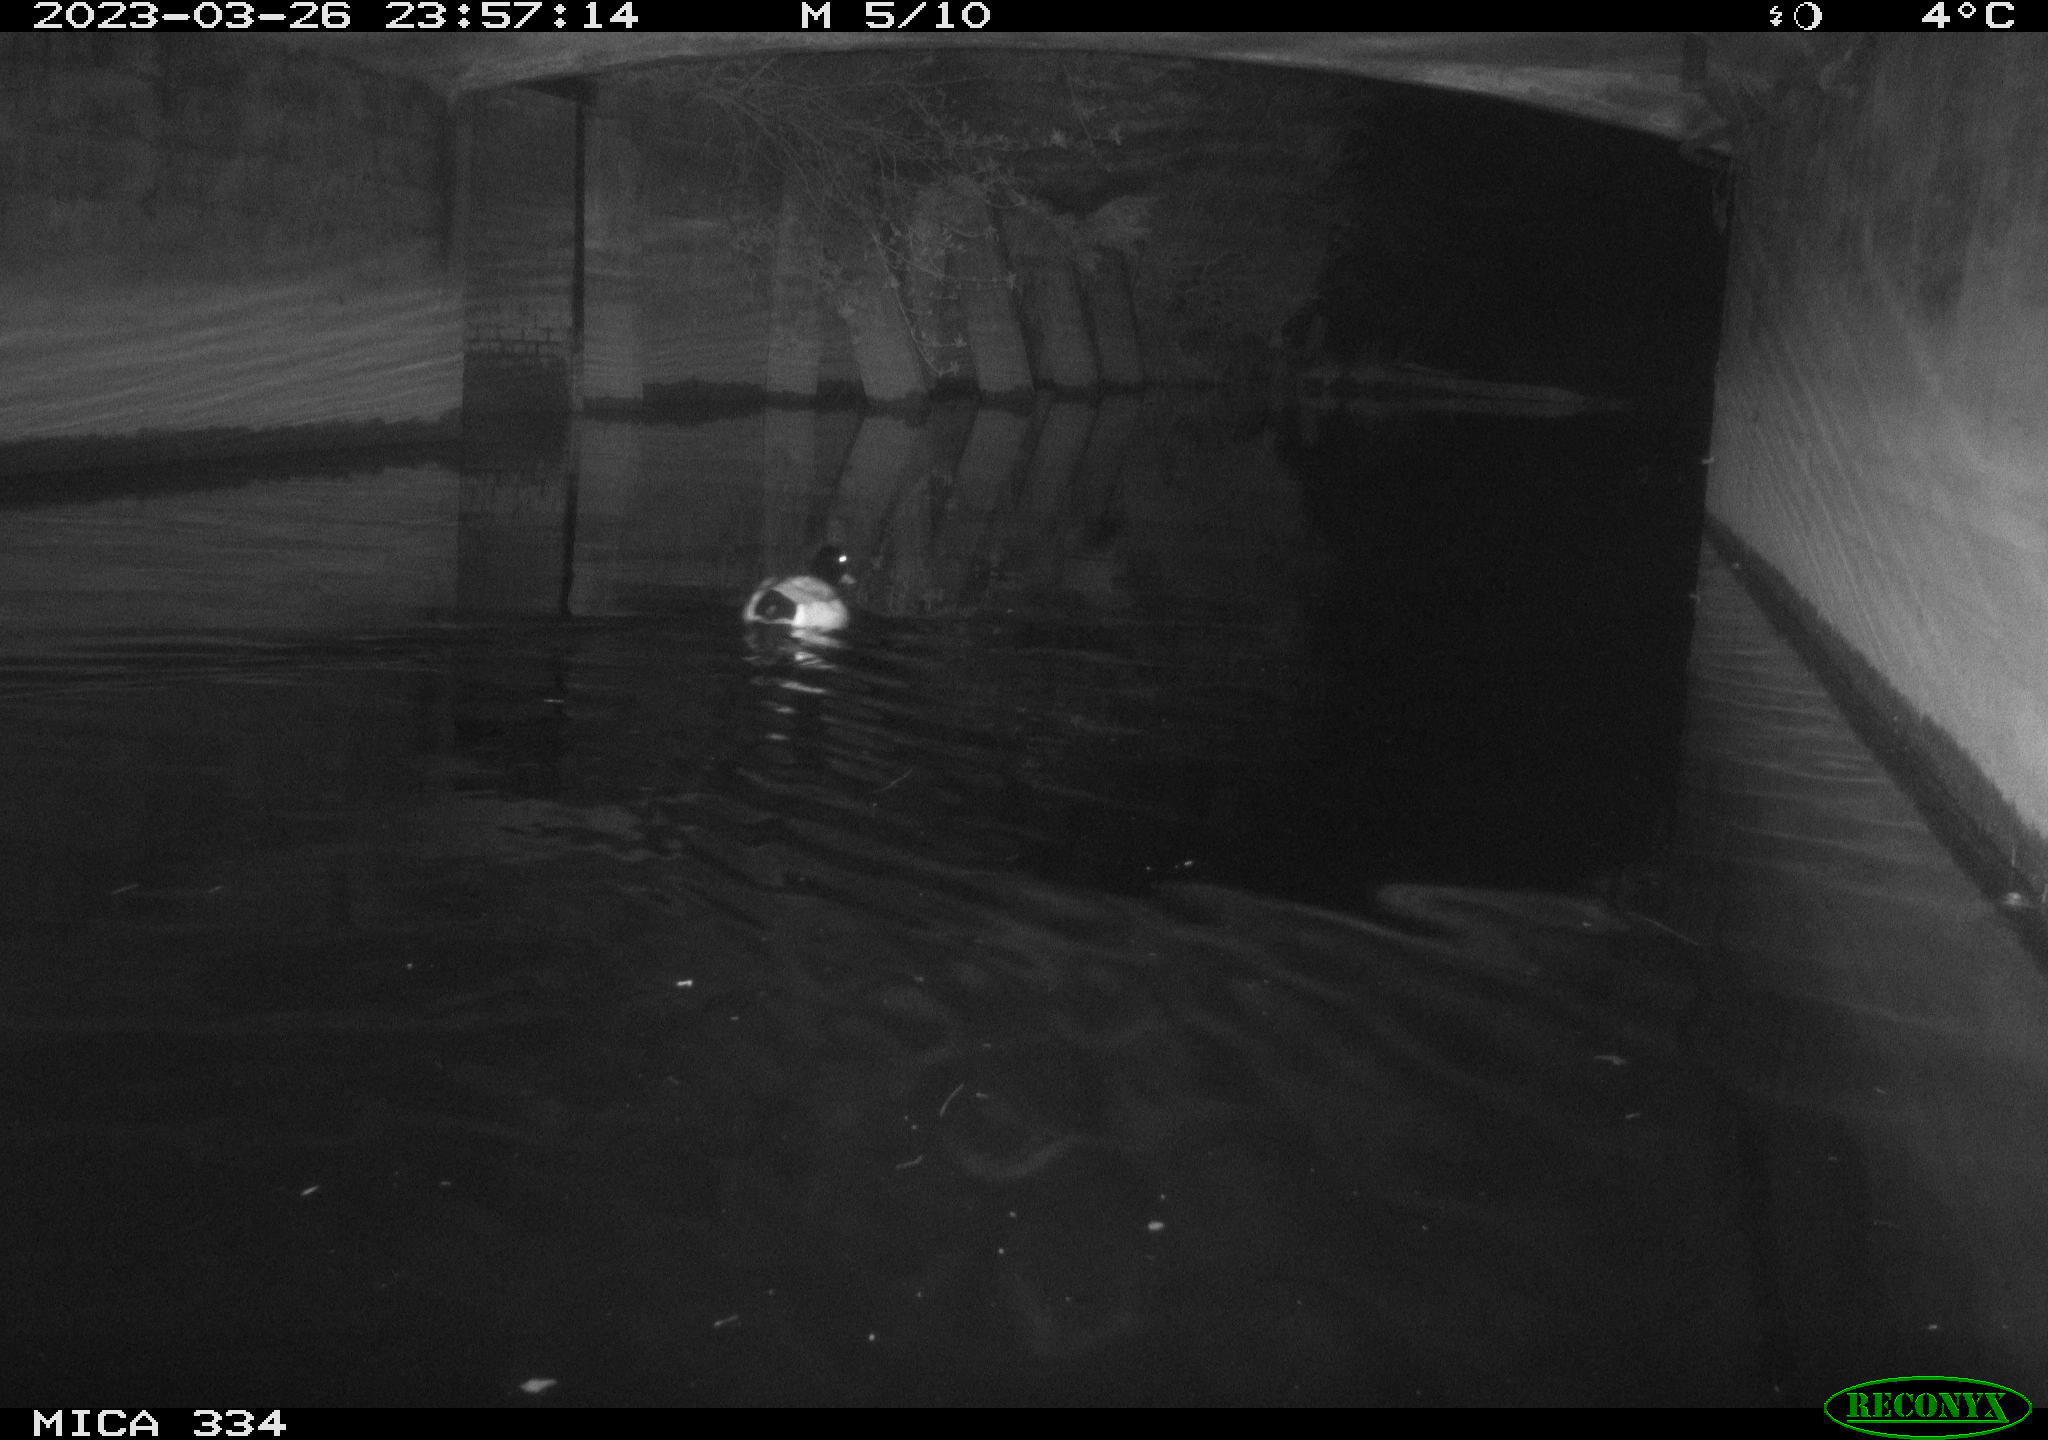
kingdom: Animalia
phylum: Chordata
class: Aves
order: Anseriformes
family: Anatidae
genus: Anas
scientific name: Anas
